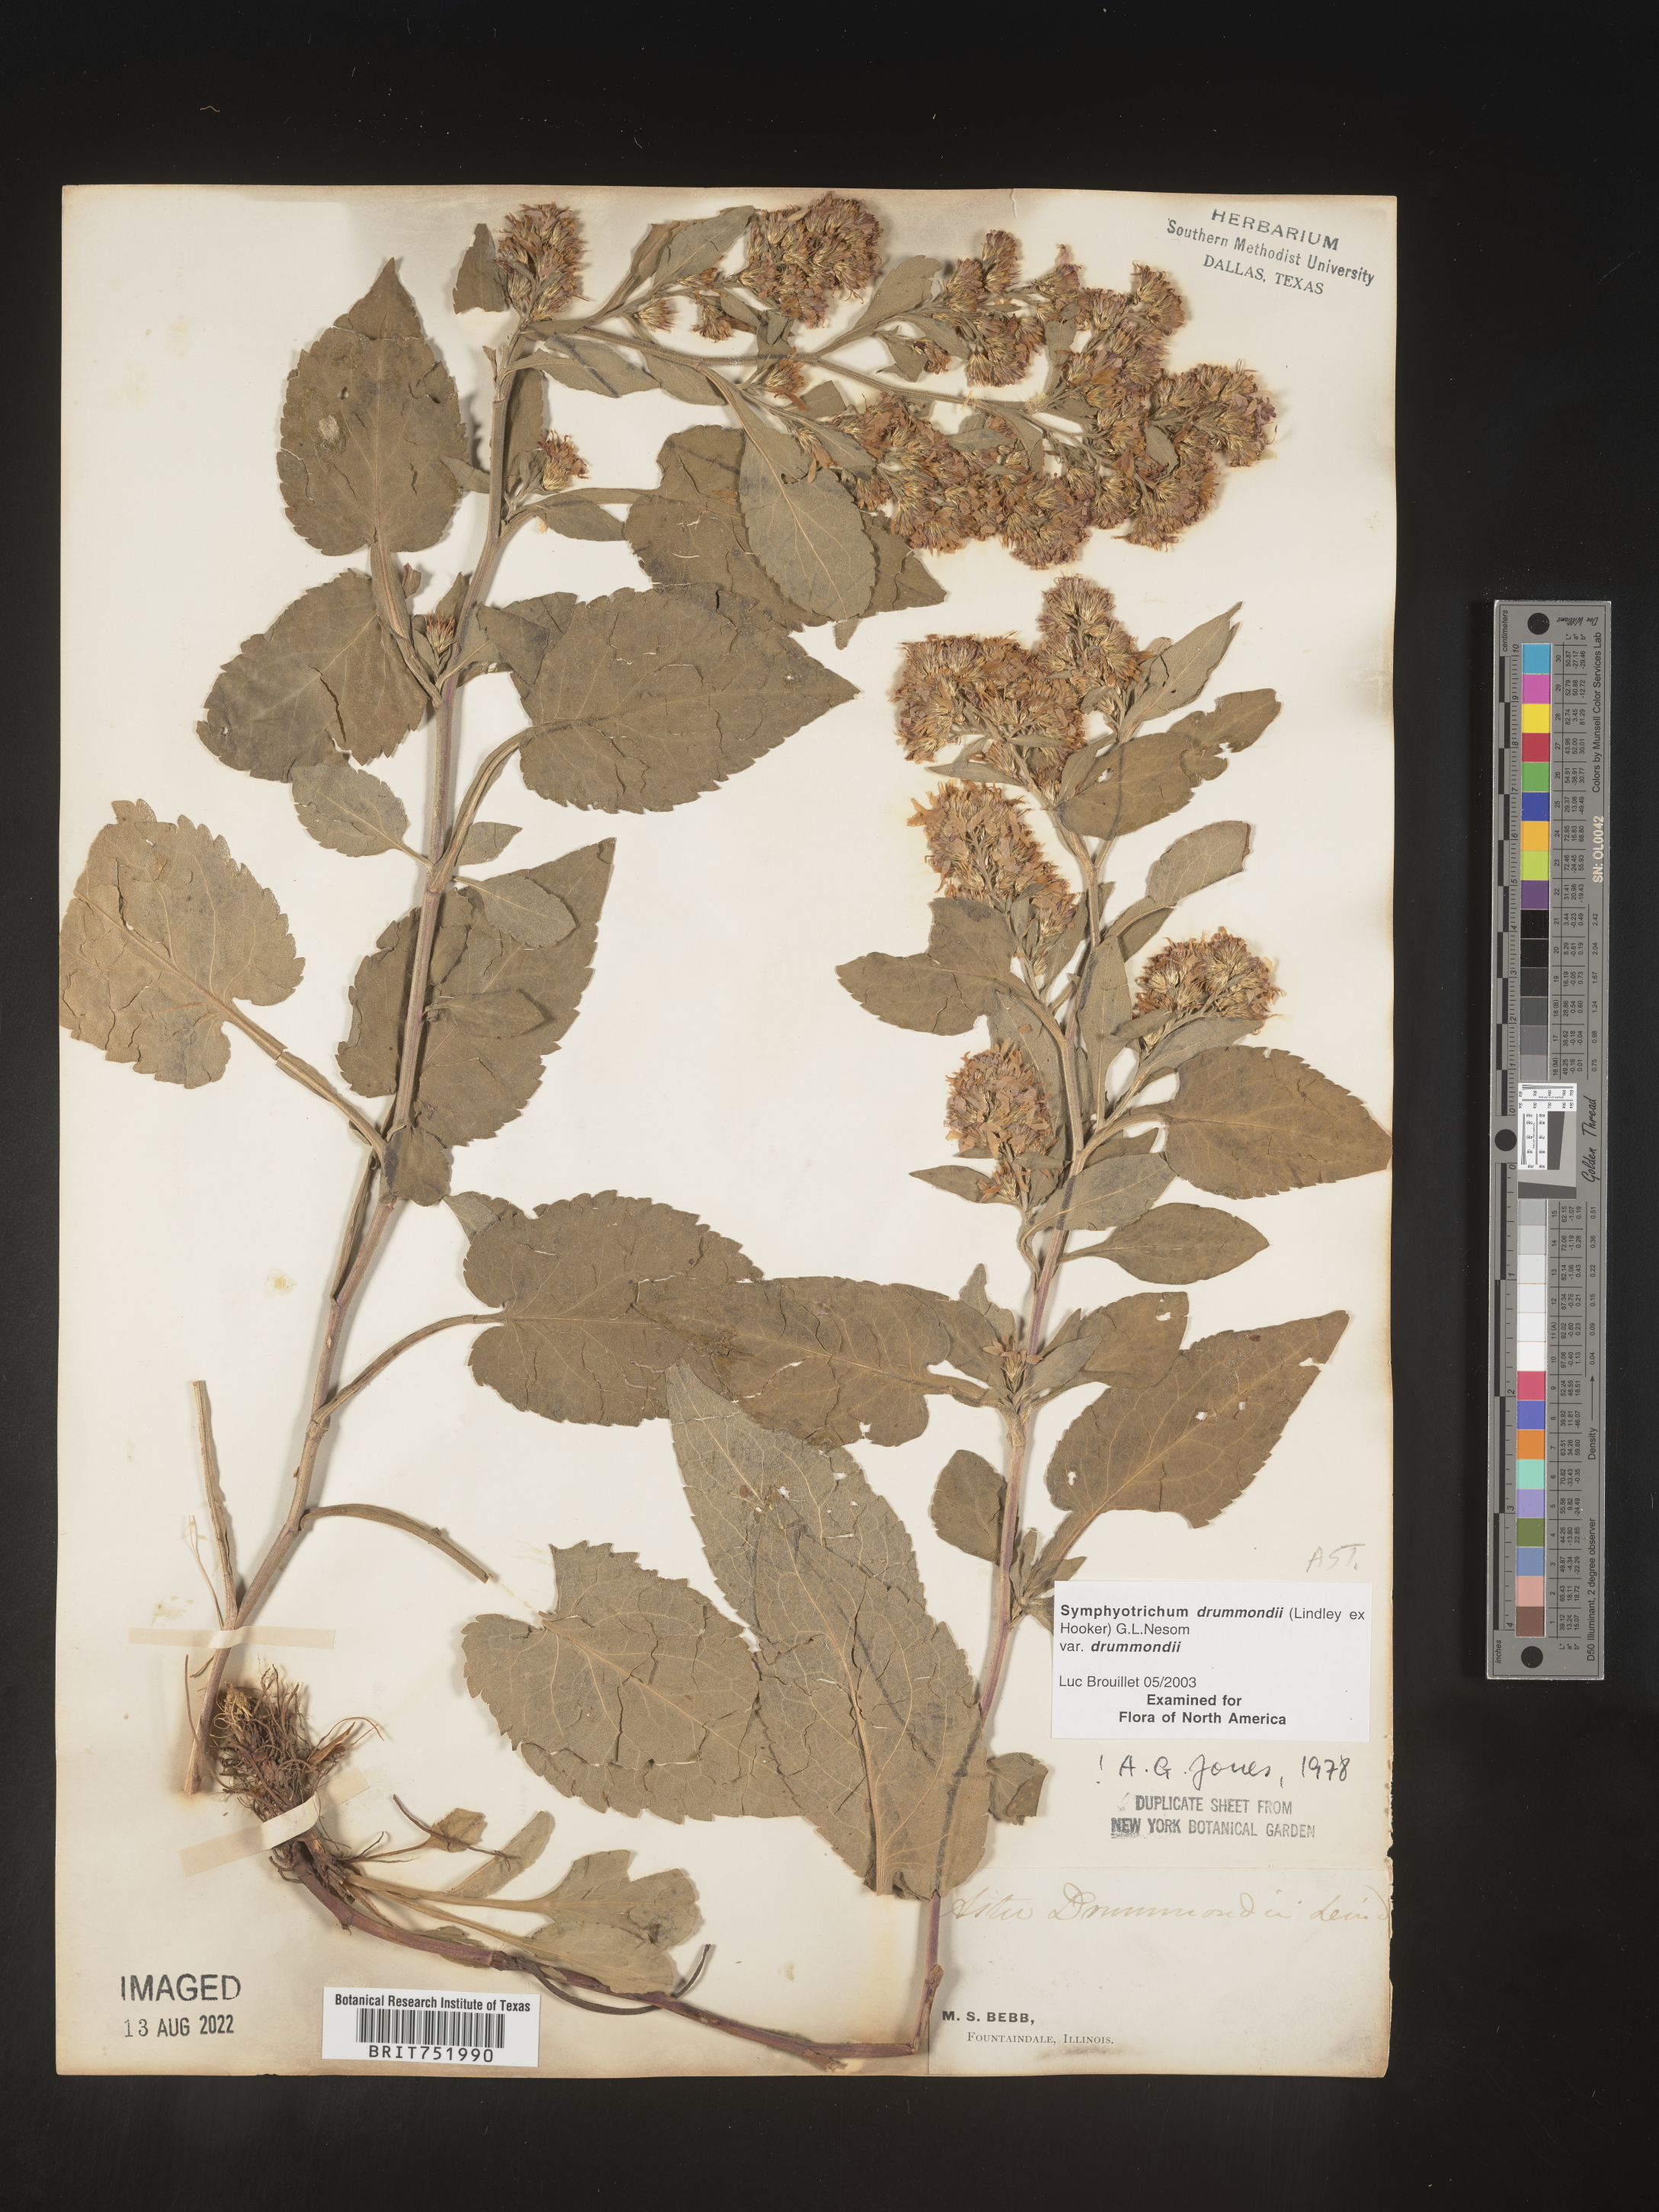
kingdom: Plantae
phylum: Tracheophyta
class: Magnoliopsida
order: Asterales
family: Asteraceae
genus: Symphyotrichum
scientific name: Symphyotrichum drummondii
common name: Drummond's aster
